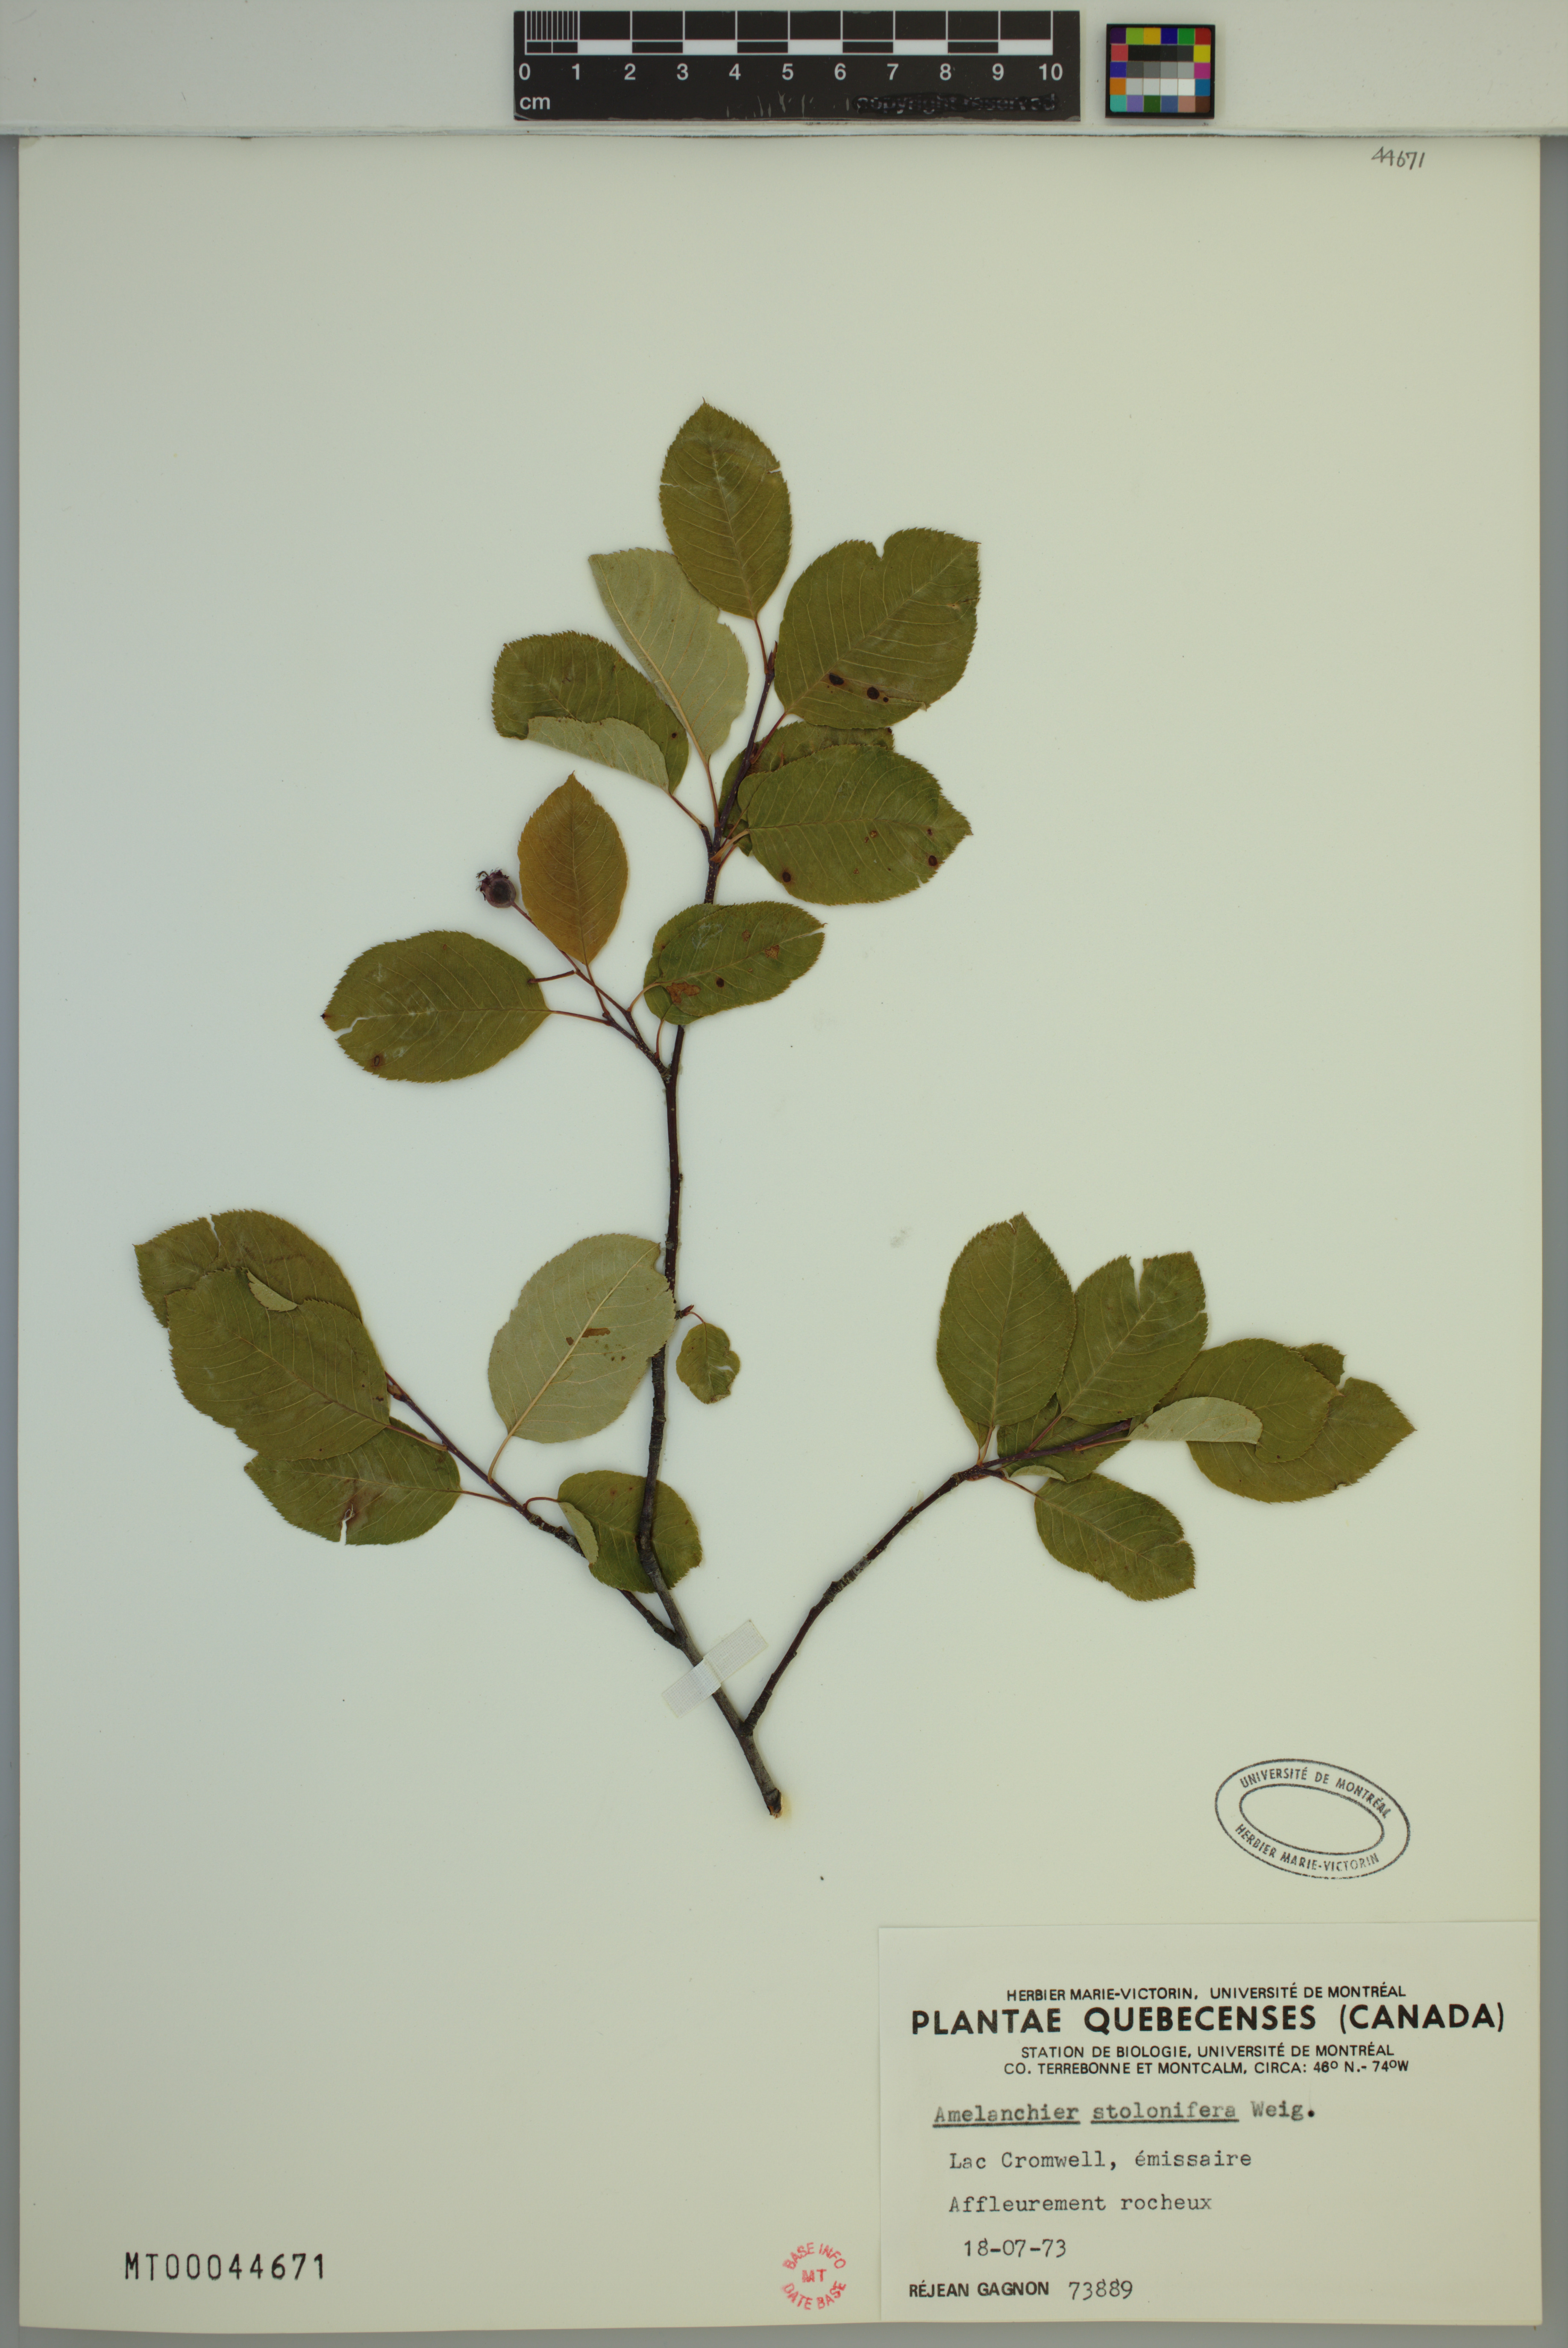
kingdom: Plantae
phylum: Tracheophyta
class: Magnoliopsida
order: Rosales
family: Rosaceae
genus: Amelanchier
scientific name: Amelanchier humilis
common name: Low juneberry
